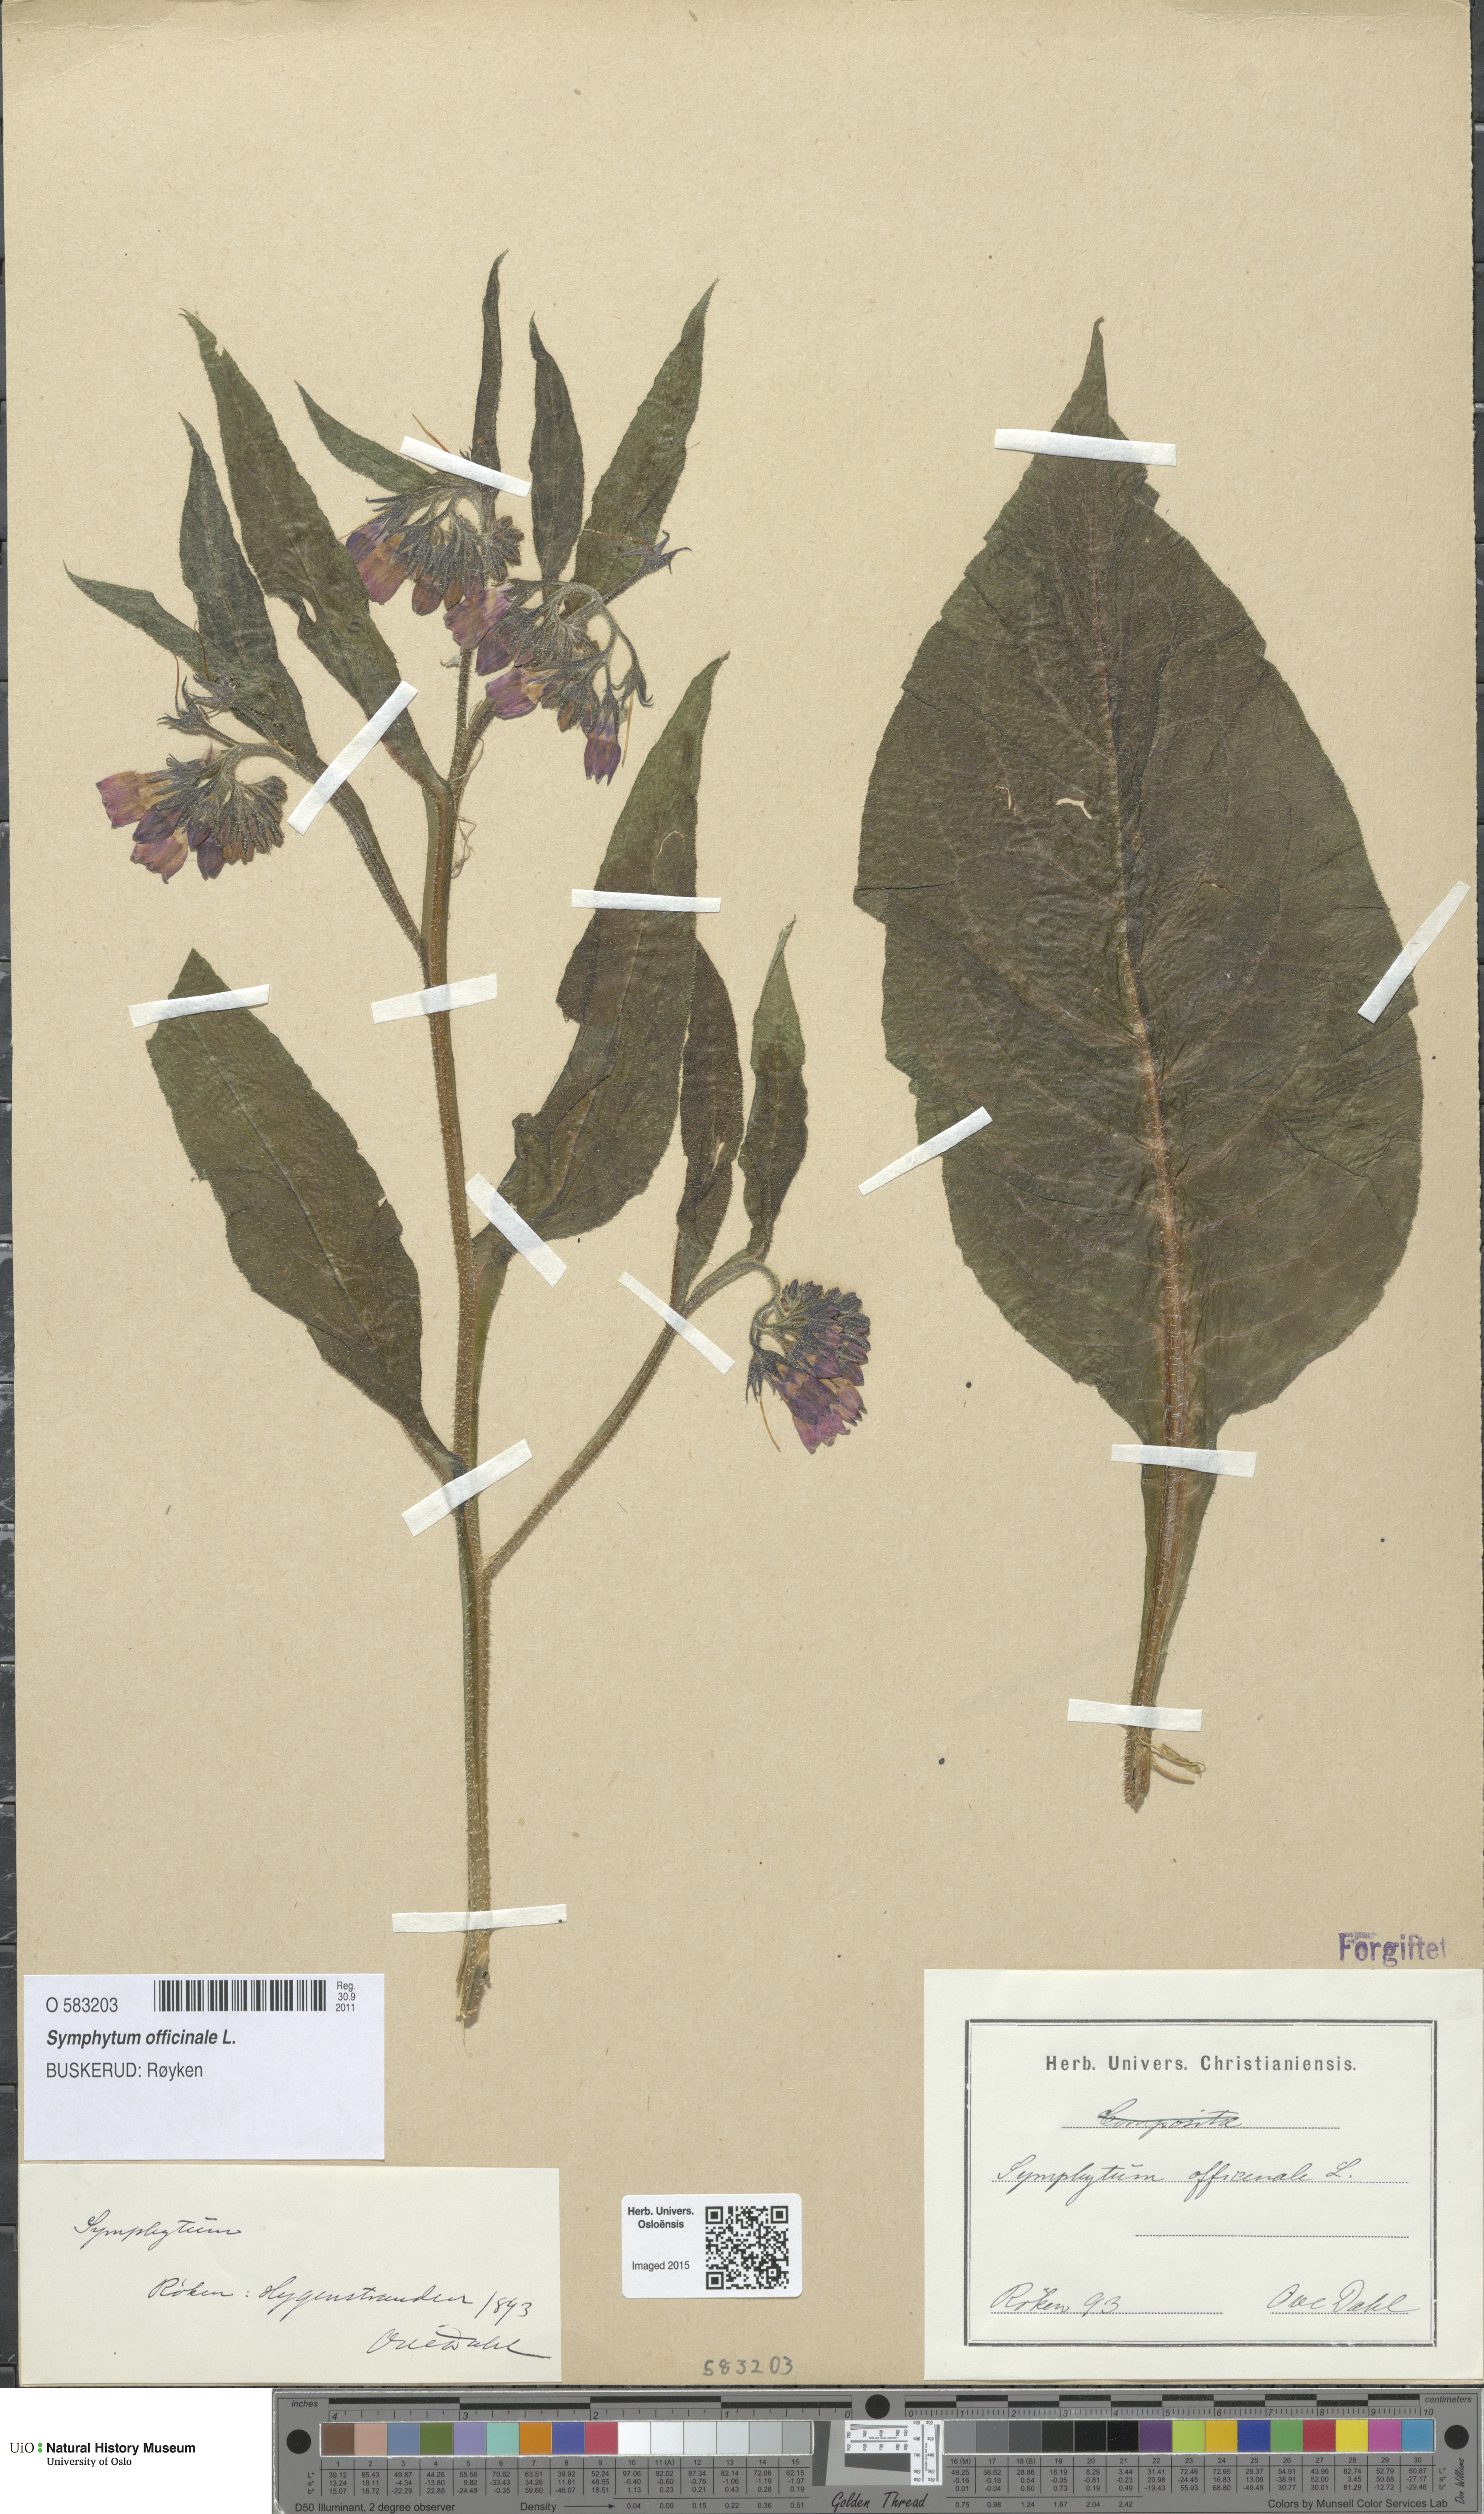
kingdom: Plantae
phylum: Tracheophyta
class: Magnoliopsida
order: Boraginales
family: Boraginaceae
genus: Symphytum
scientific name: Symphytum officinale
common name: Common comfrey
